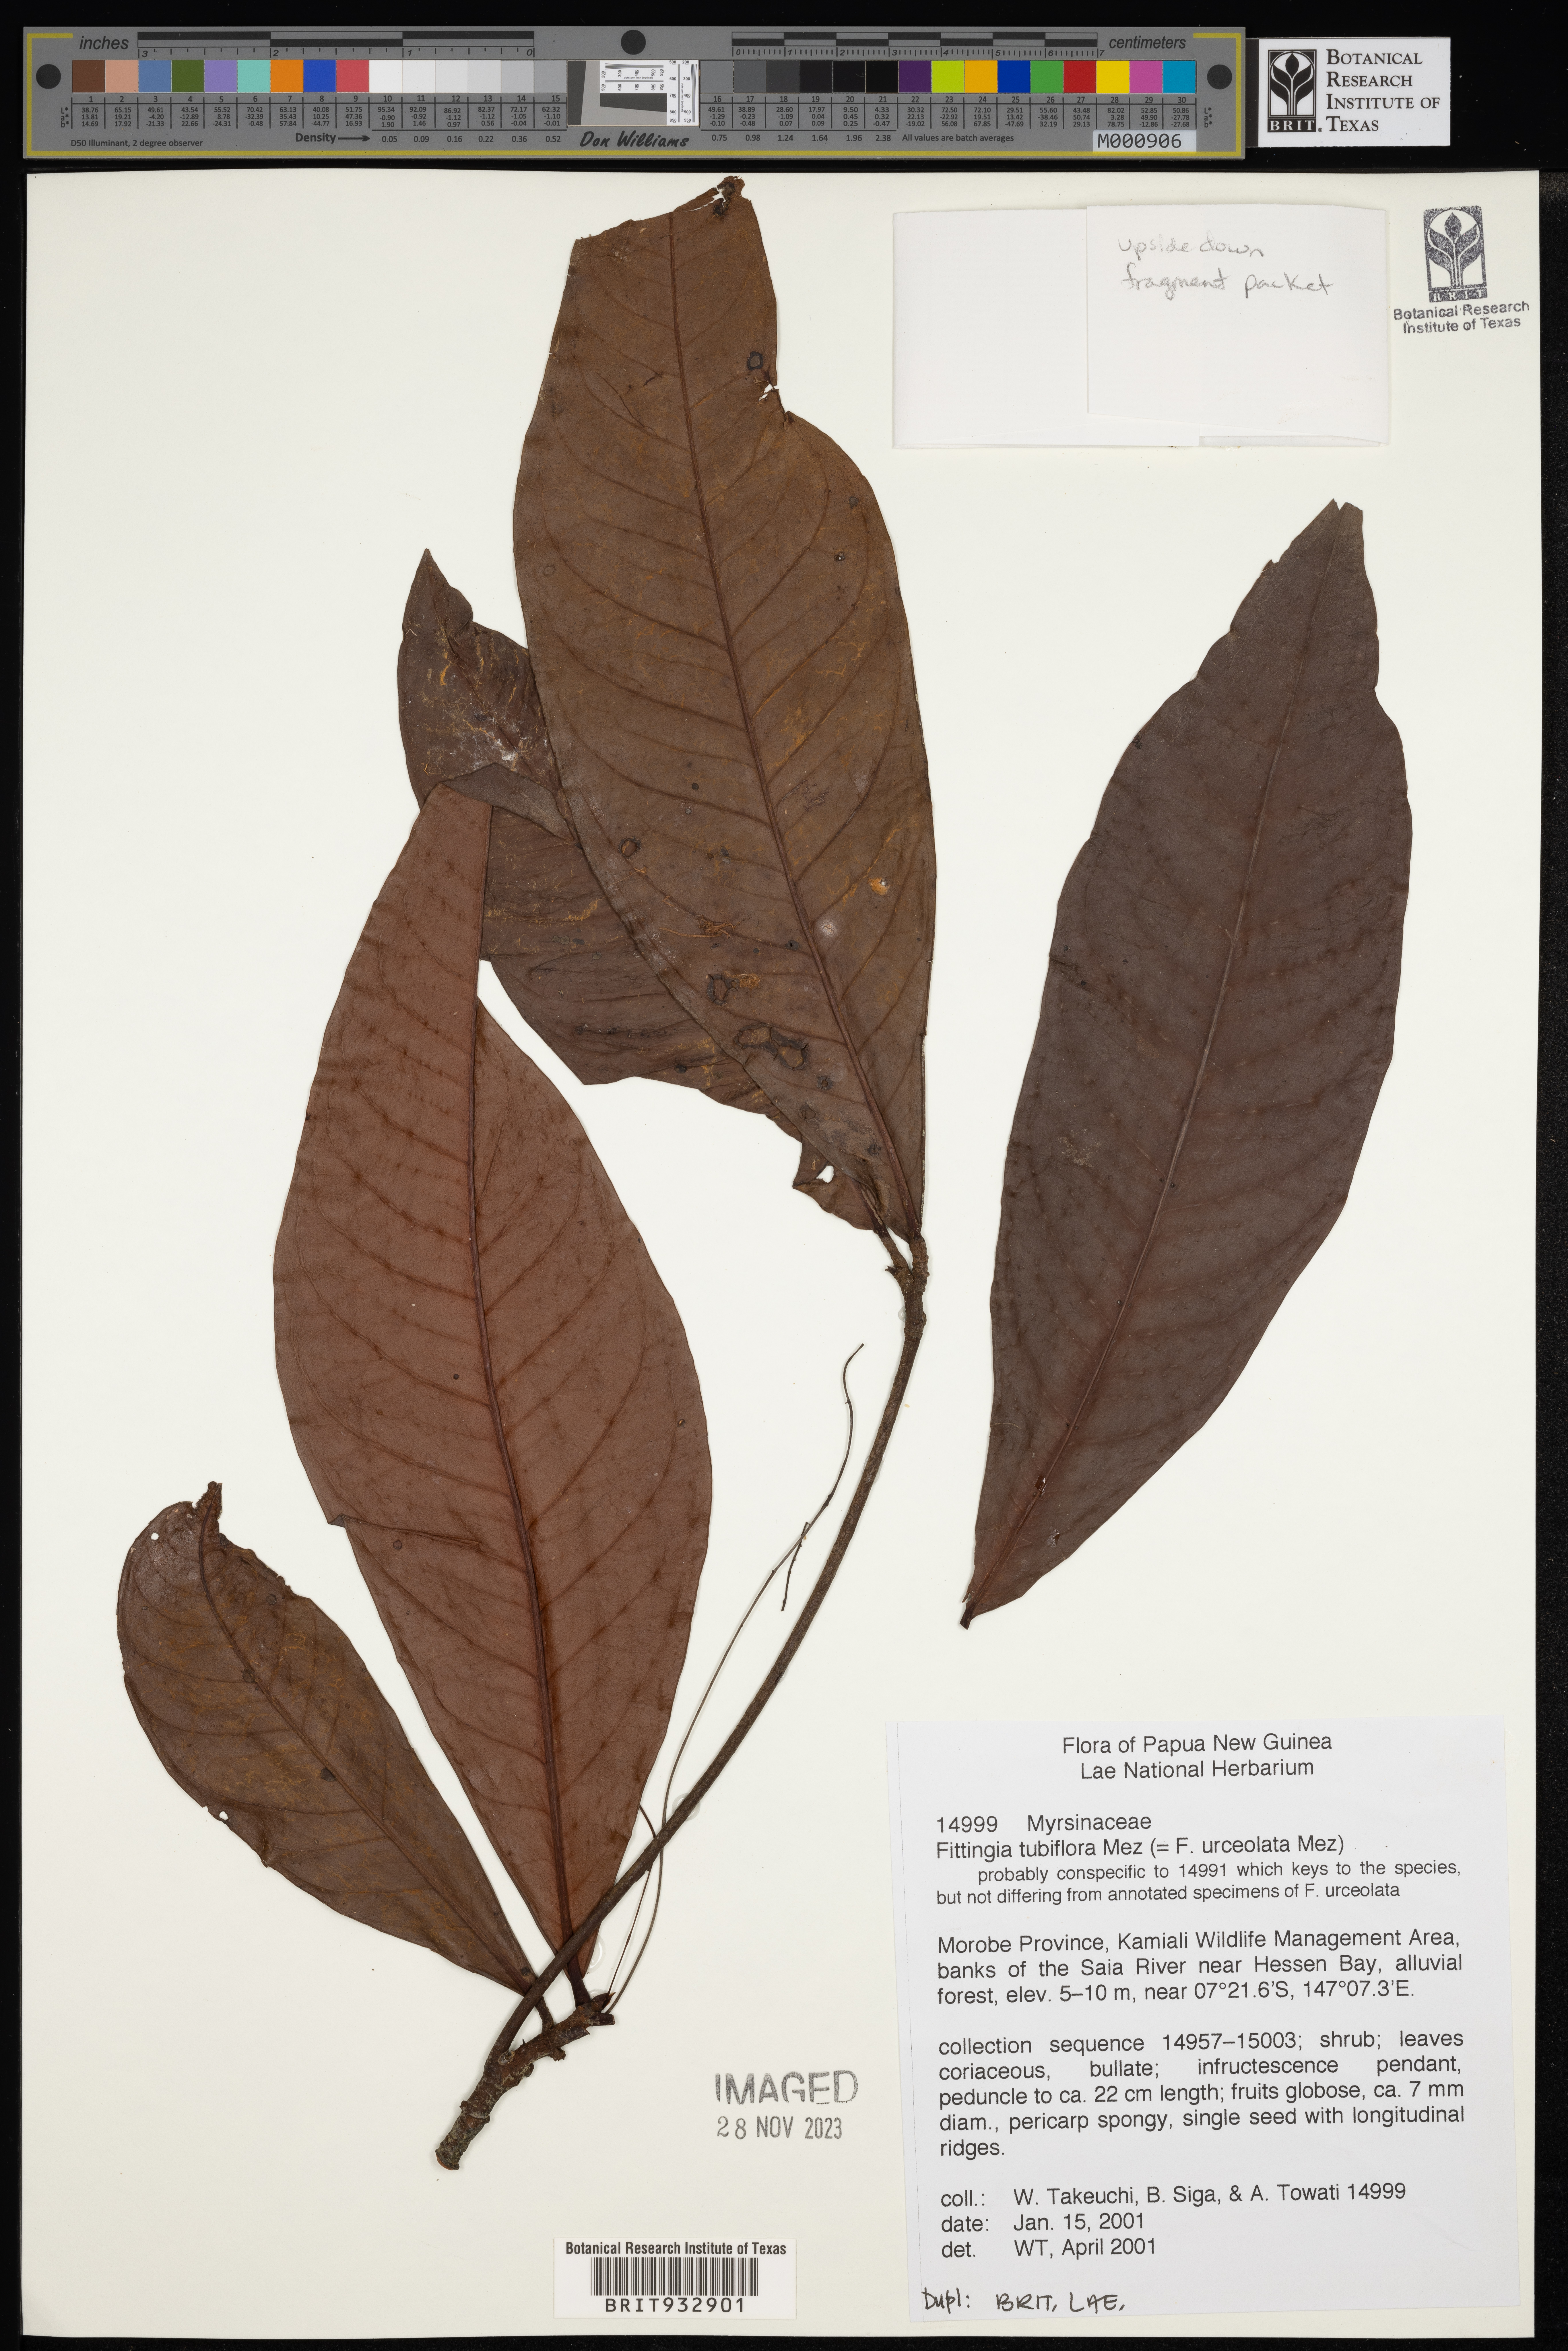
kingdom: Plantae
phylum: Tracheophyta
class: Magnoliopsida
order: Ericales
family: Primulaceae
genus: Fittingia
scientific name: Fittingia
